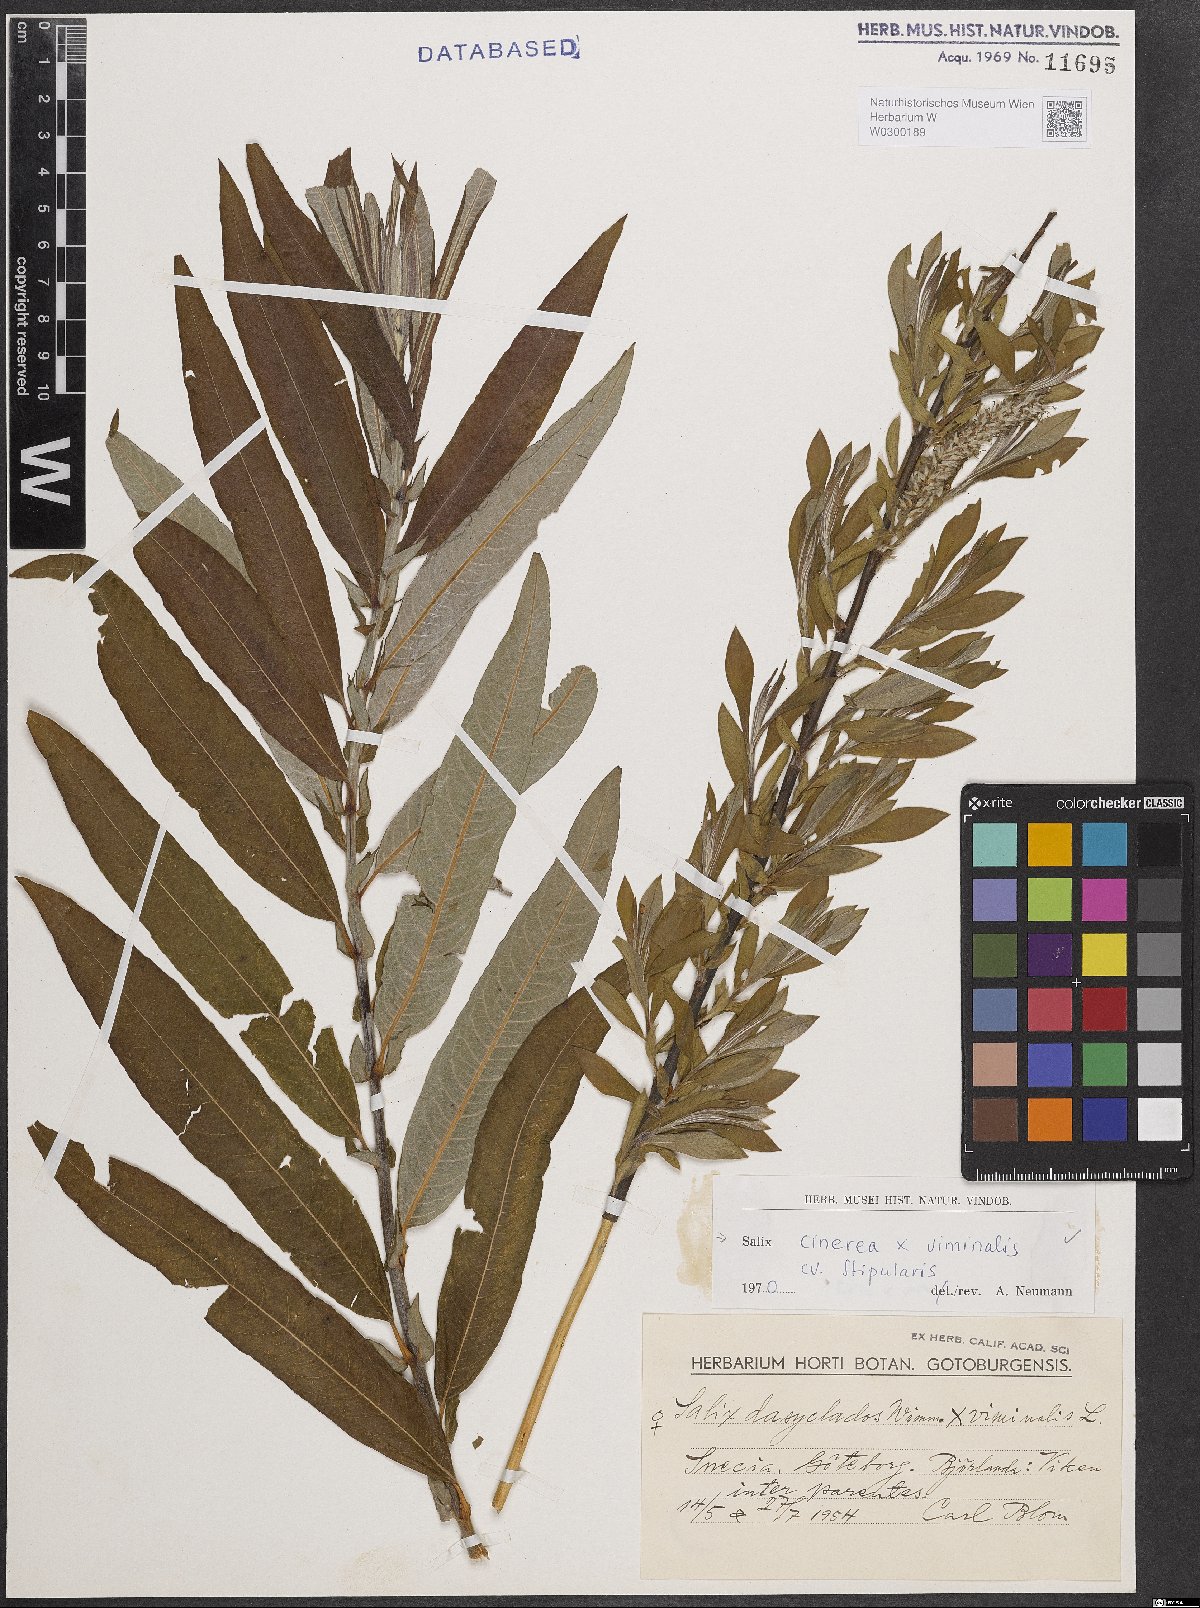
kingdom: Plantae
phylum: Tracheophyta
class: Magnoliopsida
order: Malpighiales
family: Salicaceae
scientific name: Salicaceae
